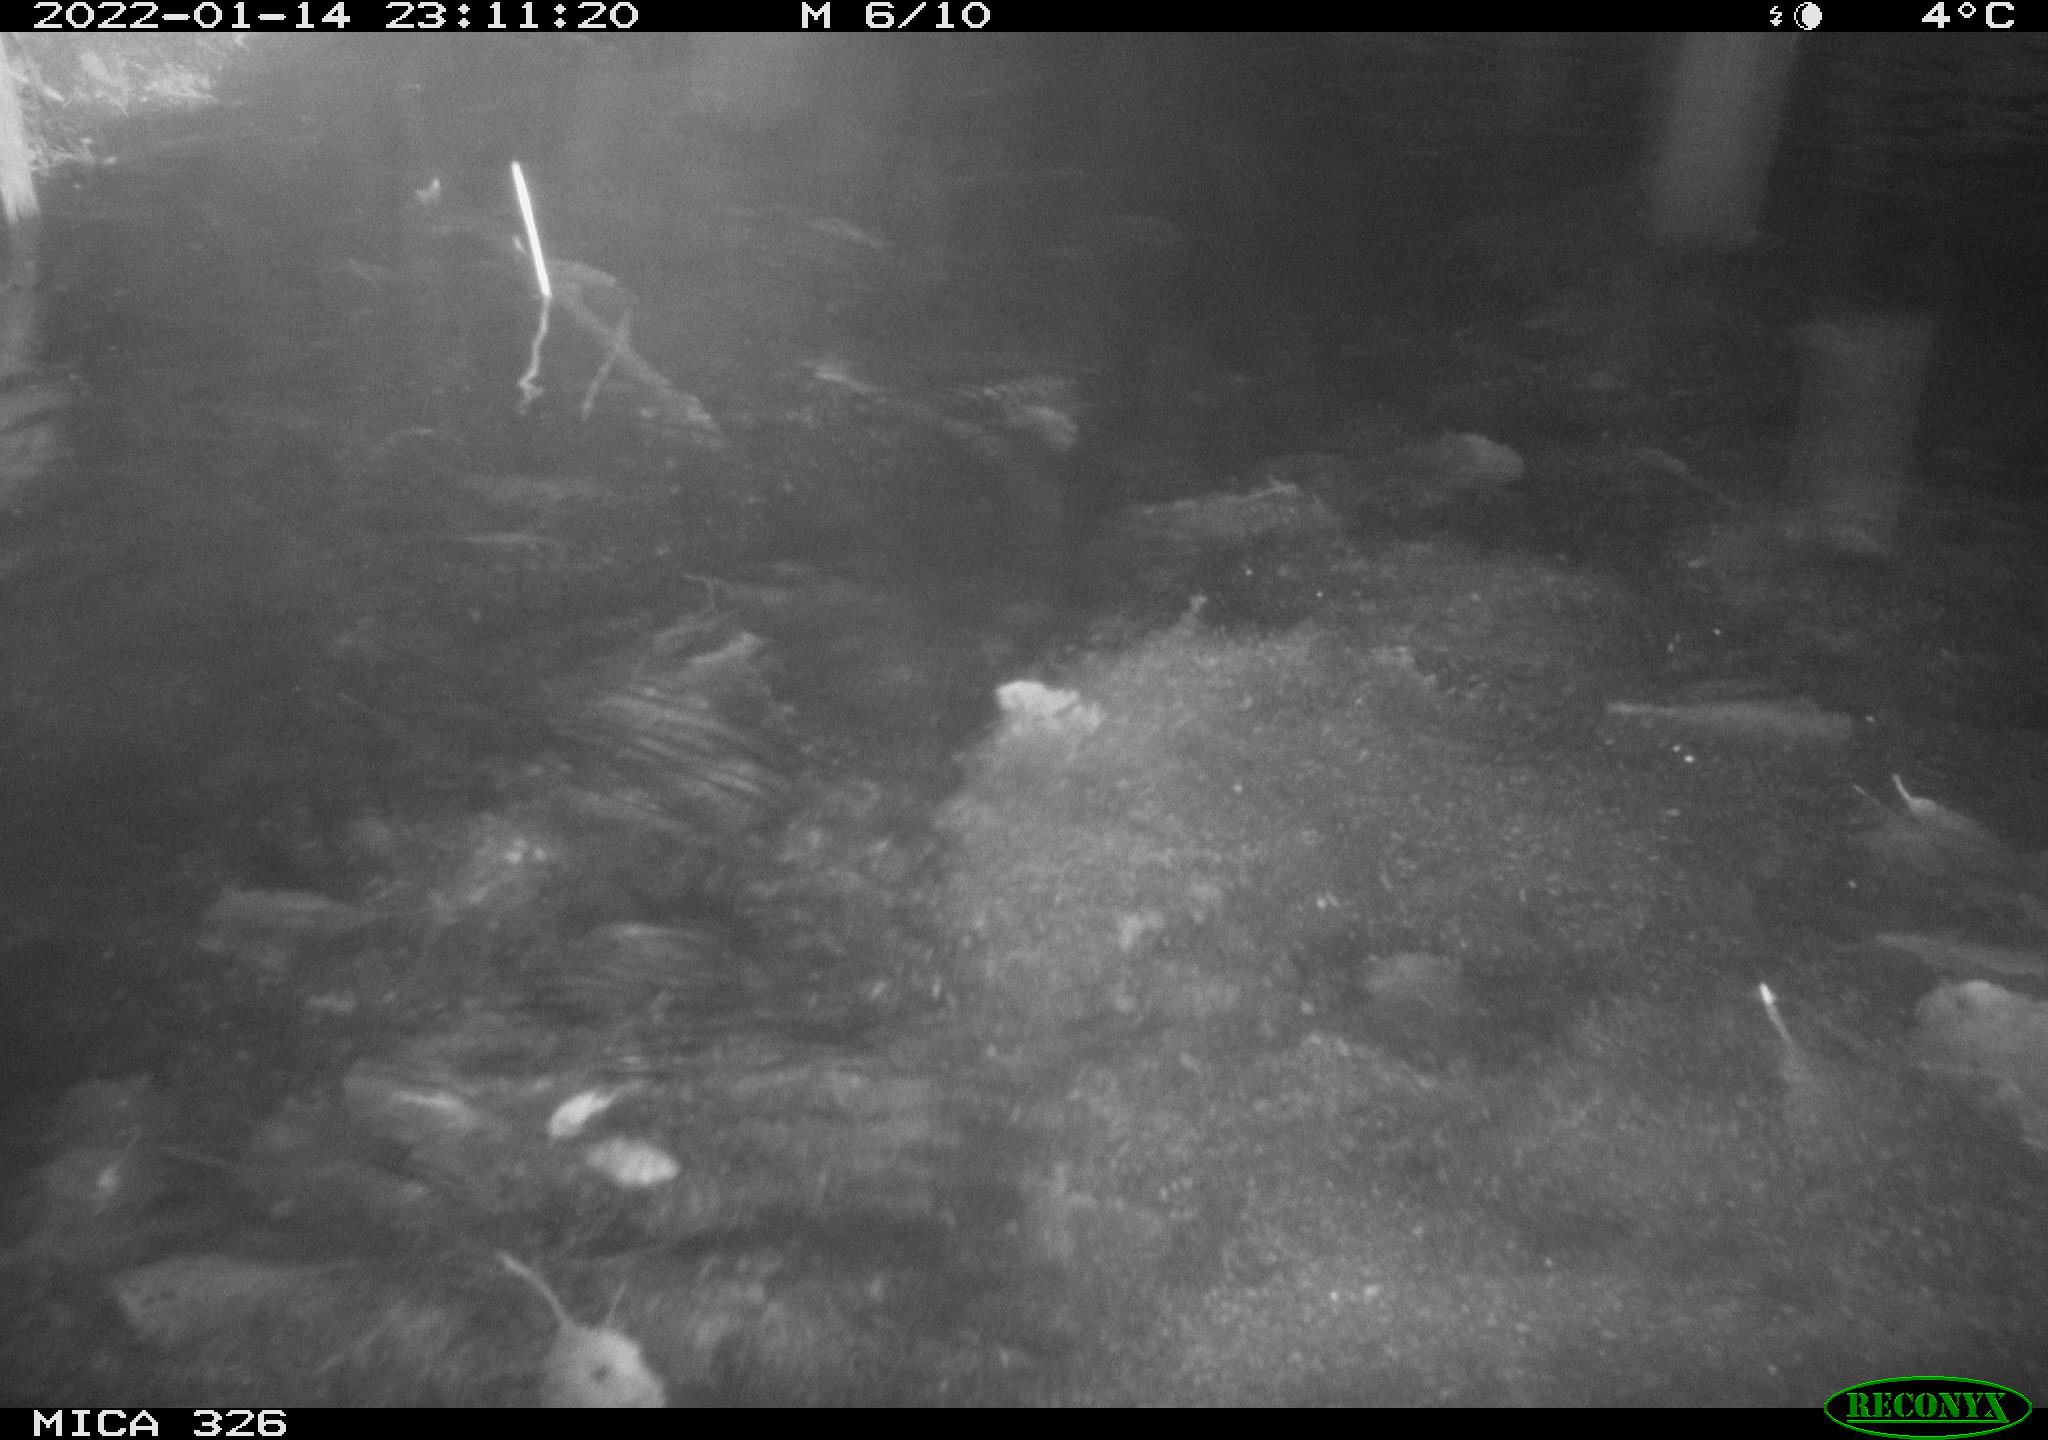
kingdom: Animalia
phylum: Chordata
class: Mammalia
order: Carnivora
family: Mustelidae
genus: Lutra
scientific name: Lutra lutra
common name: European otter
